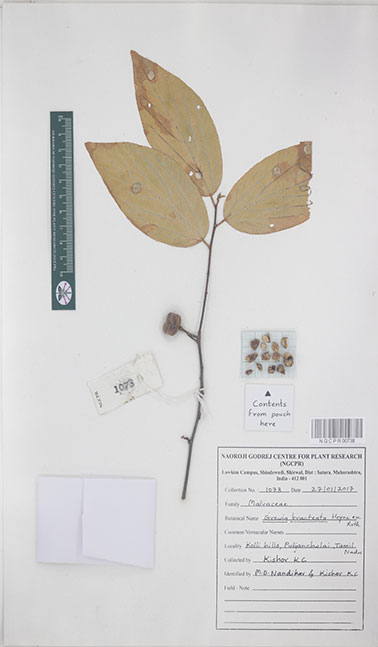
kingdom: Plantae
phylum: Tracheophyta
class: Magnoliopsida
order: Malvales
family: Malvaceae
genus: Grewia
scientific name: Grewia bracteata
